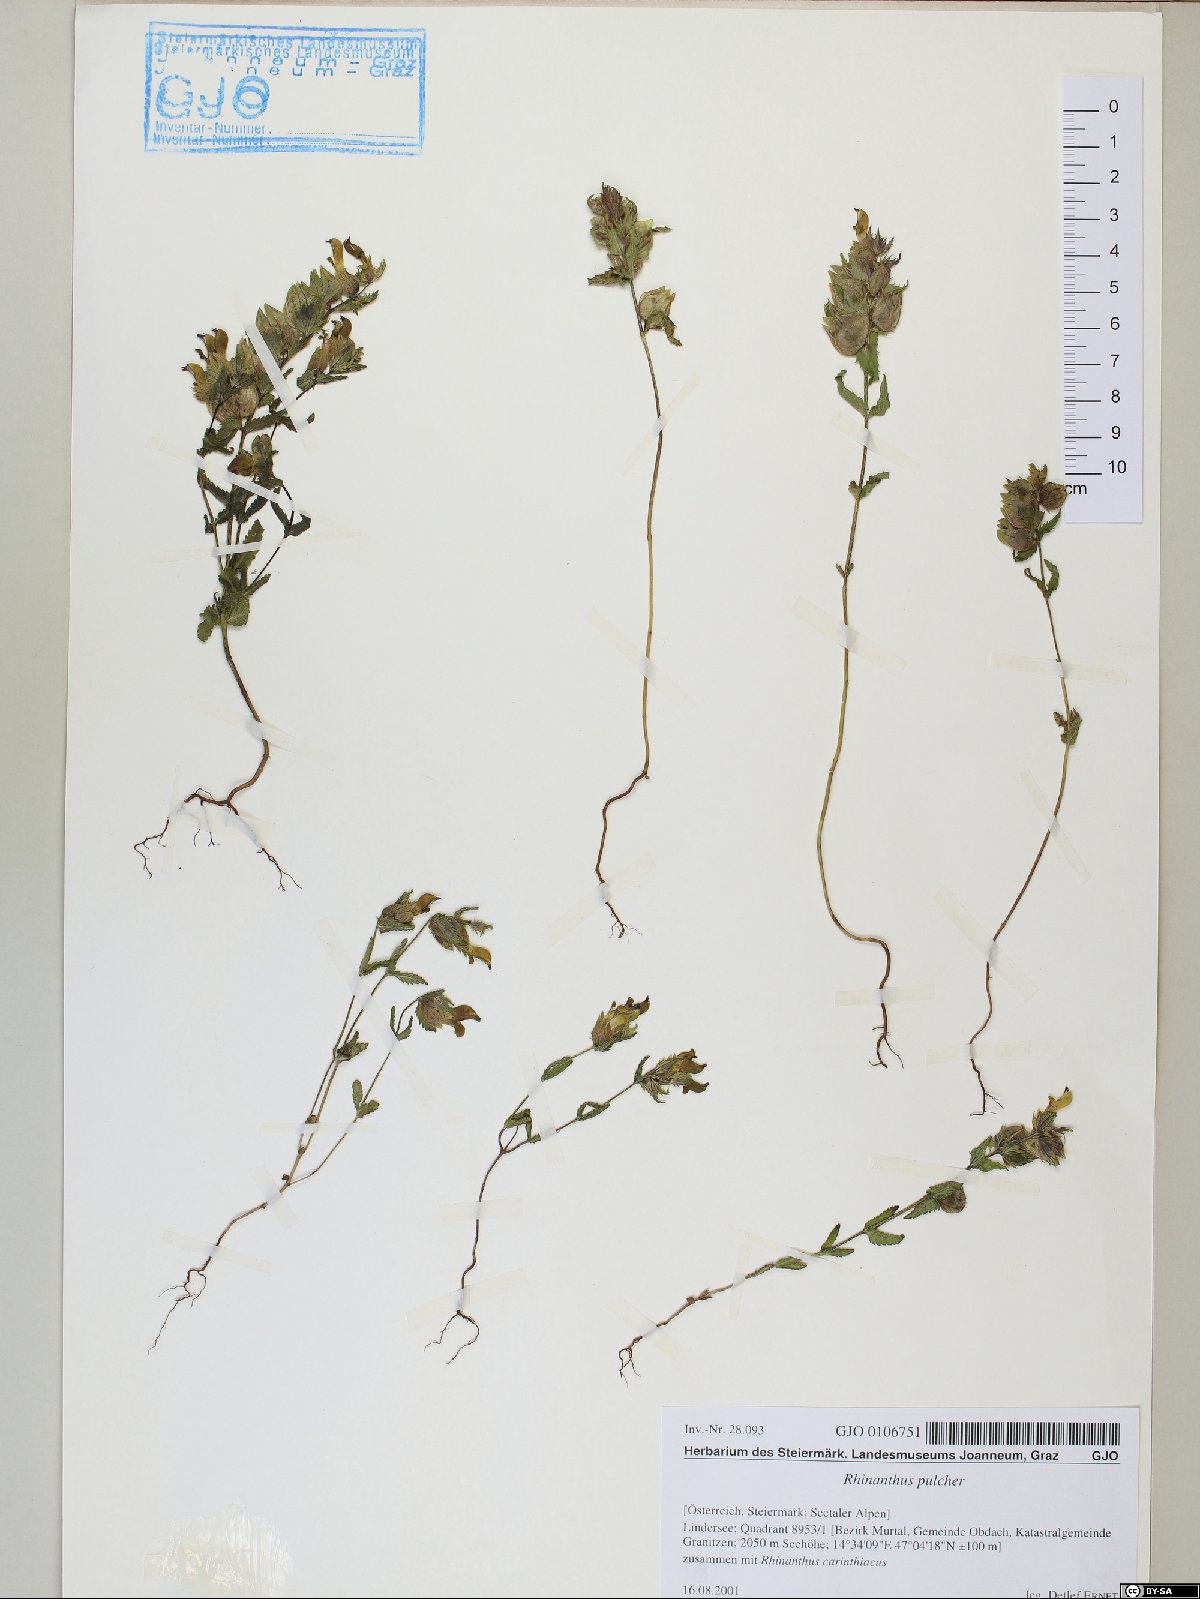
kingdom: Plantae
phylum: Tracheophyta
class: Magnoliopsida
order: Lamiales
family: Orobanchaceae
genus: Rhinanthus
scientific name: Rhinanthus riphaeus
